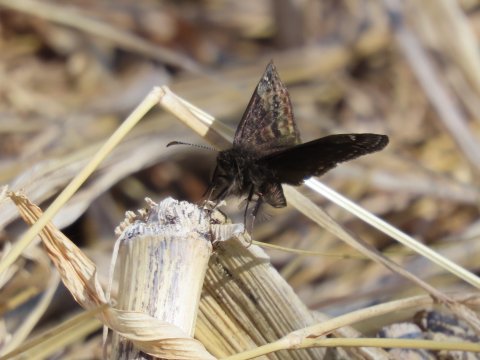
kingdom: Animalia
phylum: Arthropoda
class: Insecta
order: Lepidoptera
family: Hesperiidae
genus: Gesta
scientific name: Gesta
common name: Wild Indigo Duskywing
